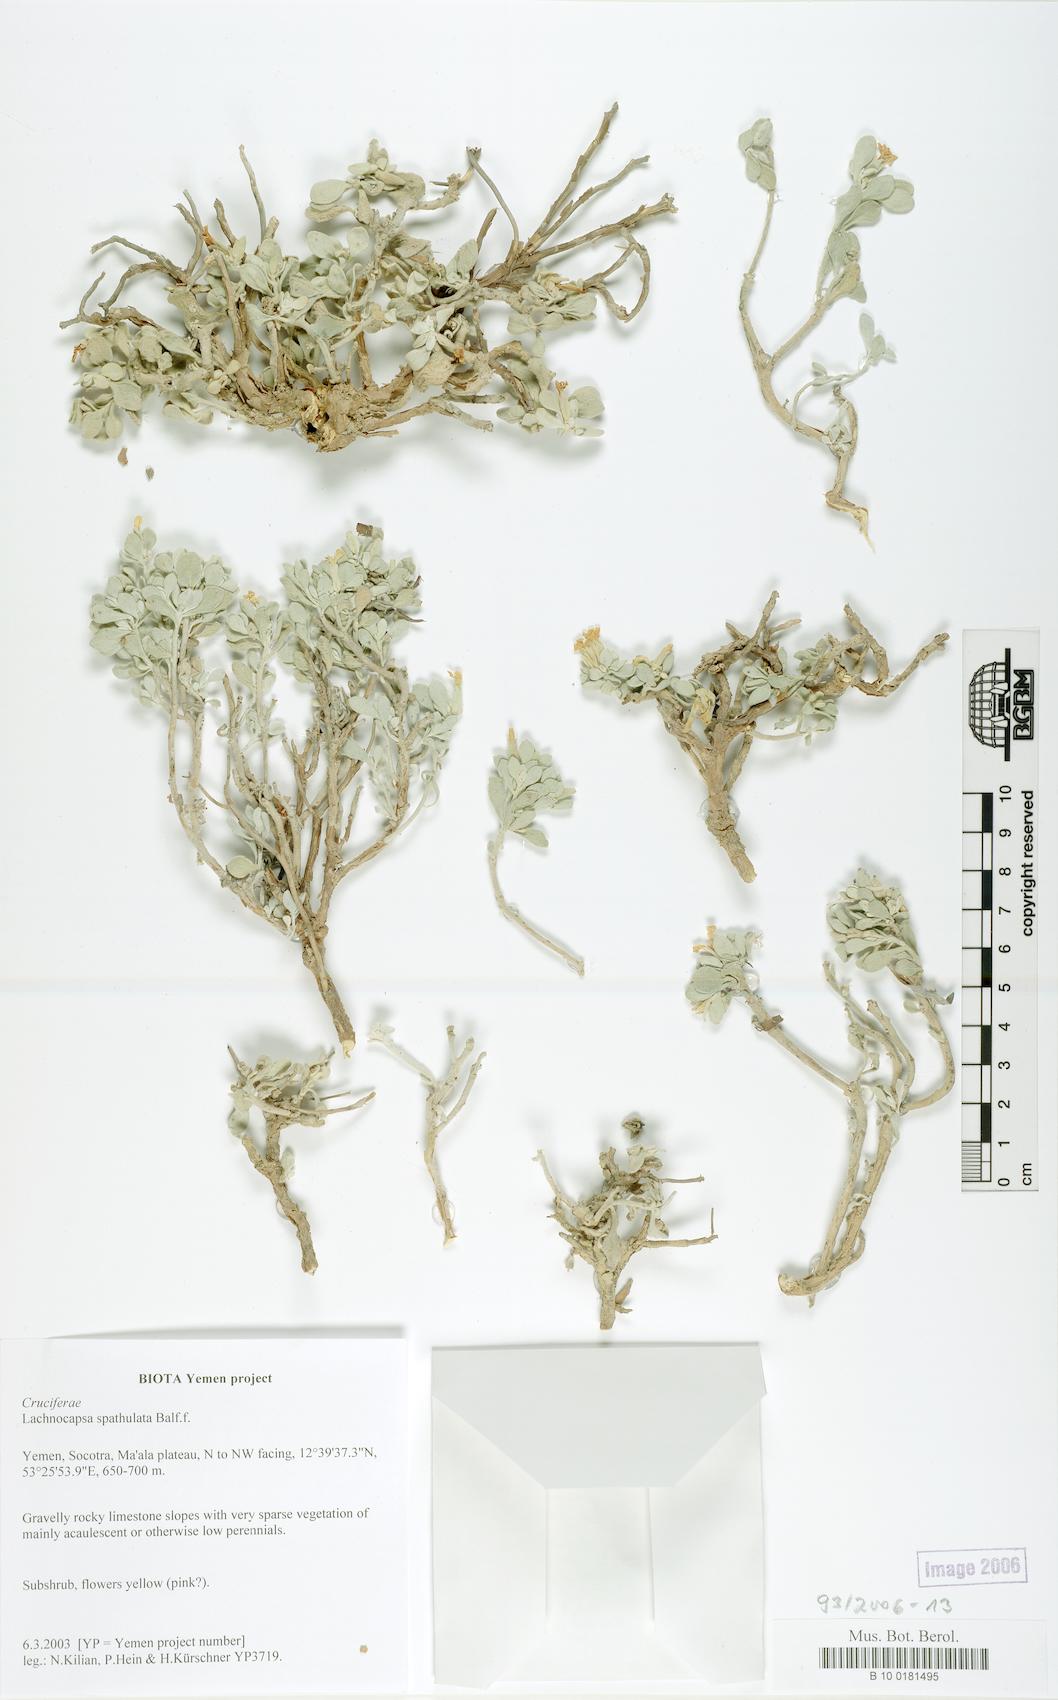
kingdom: Plantae
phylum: Tracheophyta
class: Magnoliopsida
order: Brassicales
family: Brassicaceae
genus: Lachnocapsa
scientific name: Lachnocapsa spathulata
